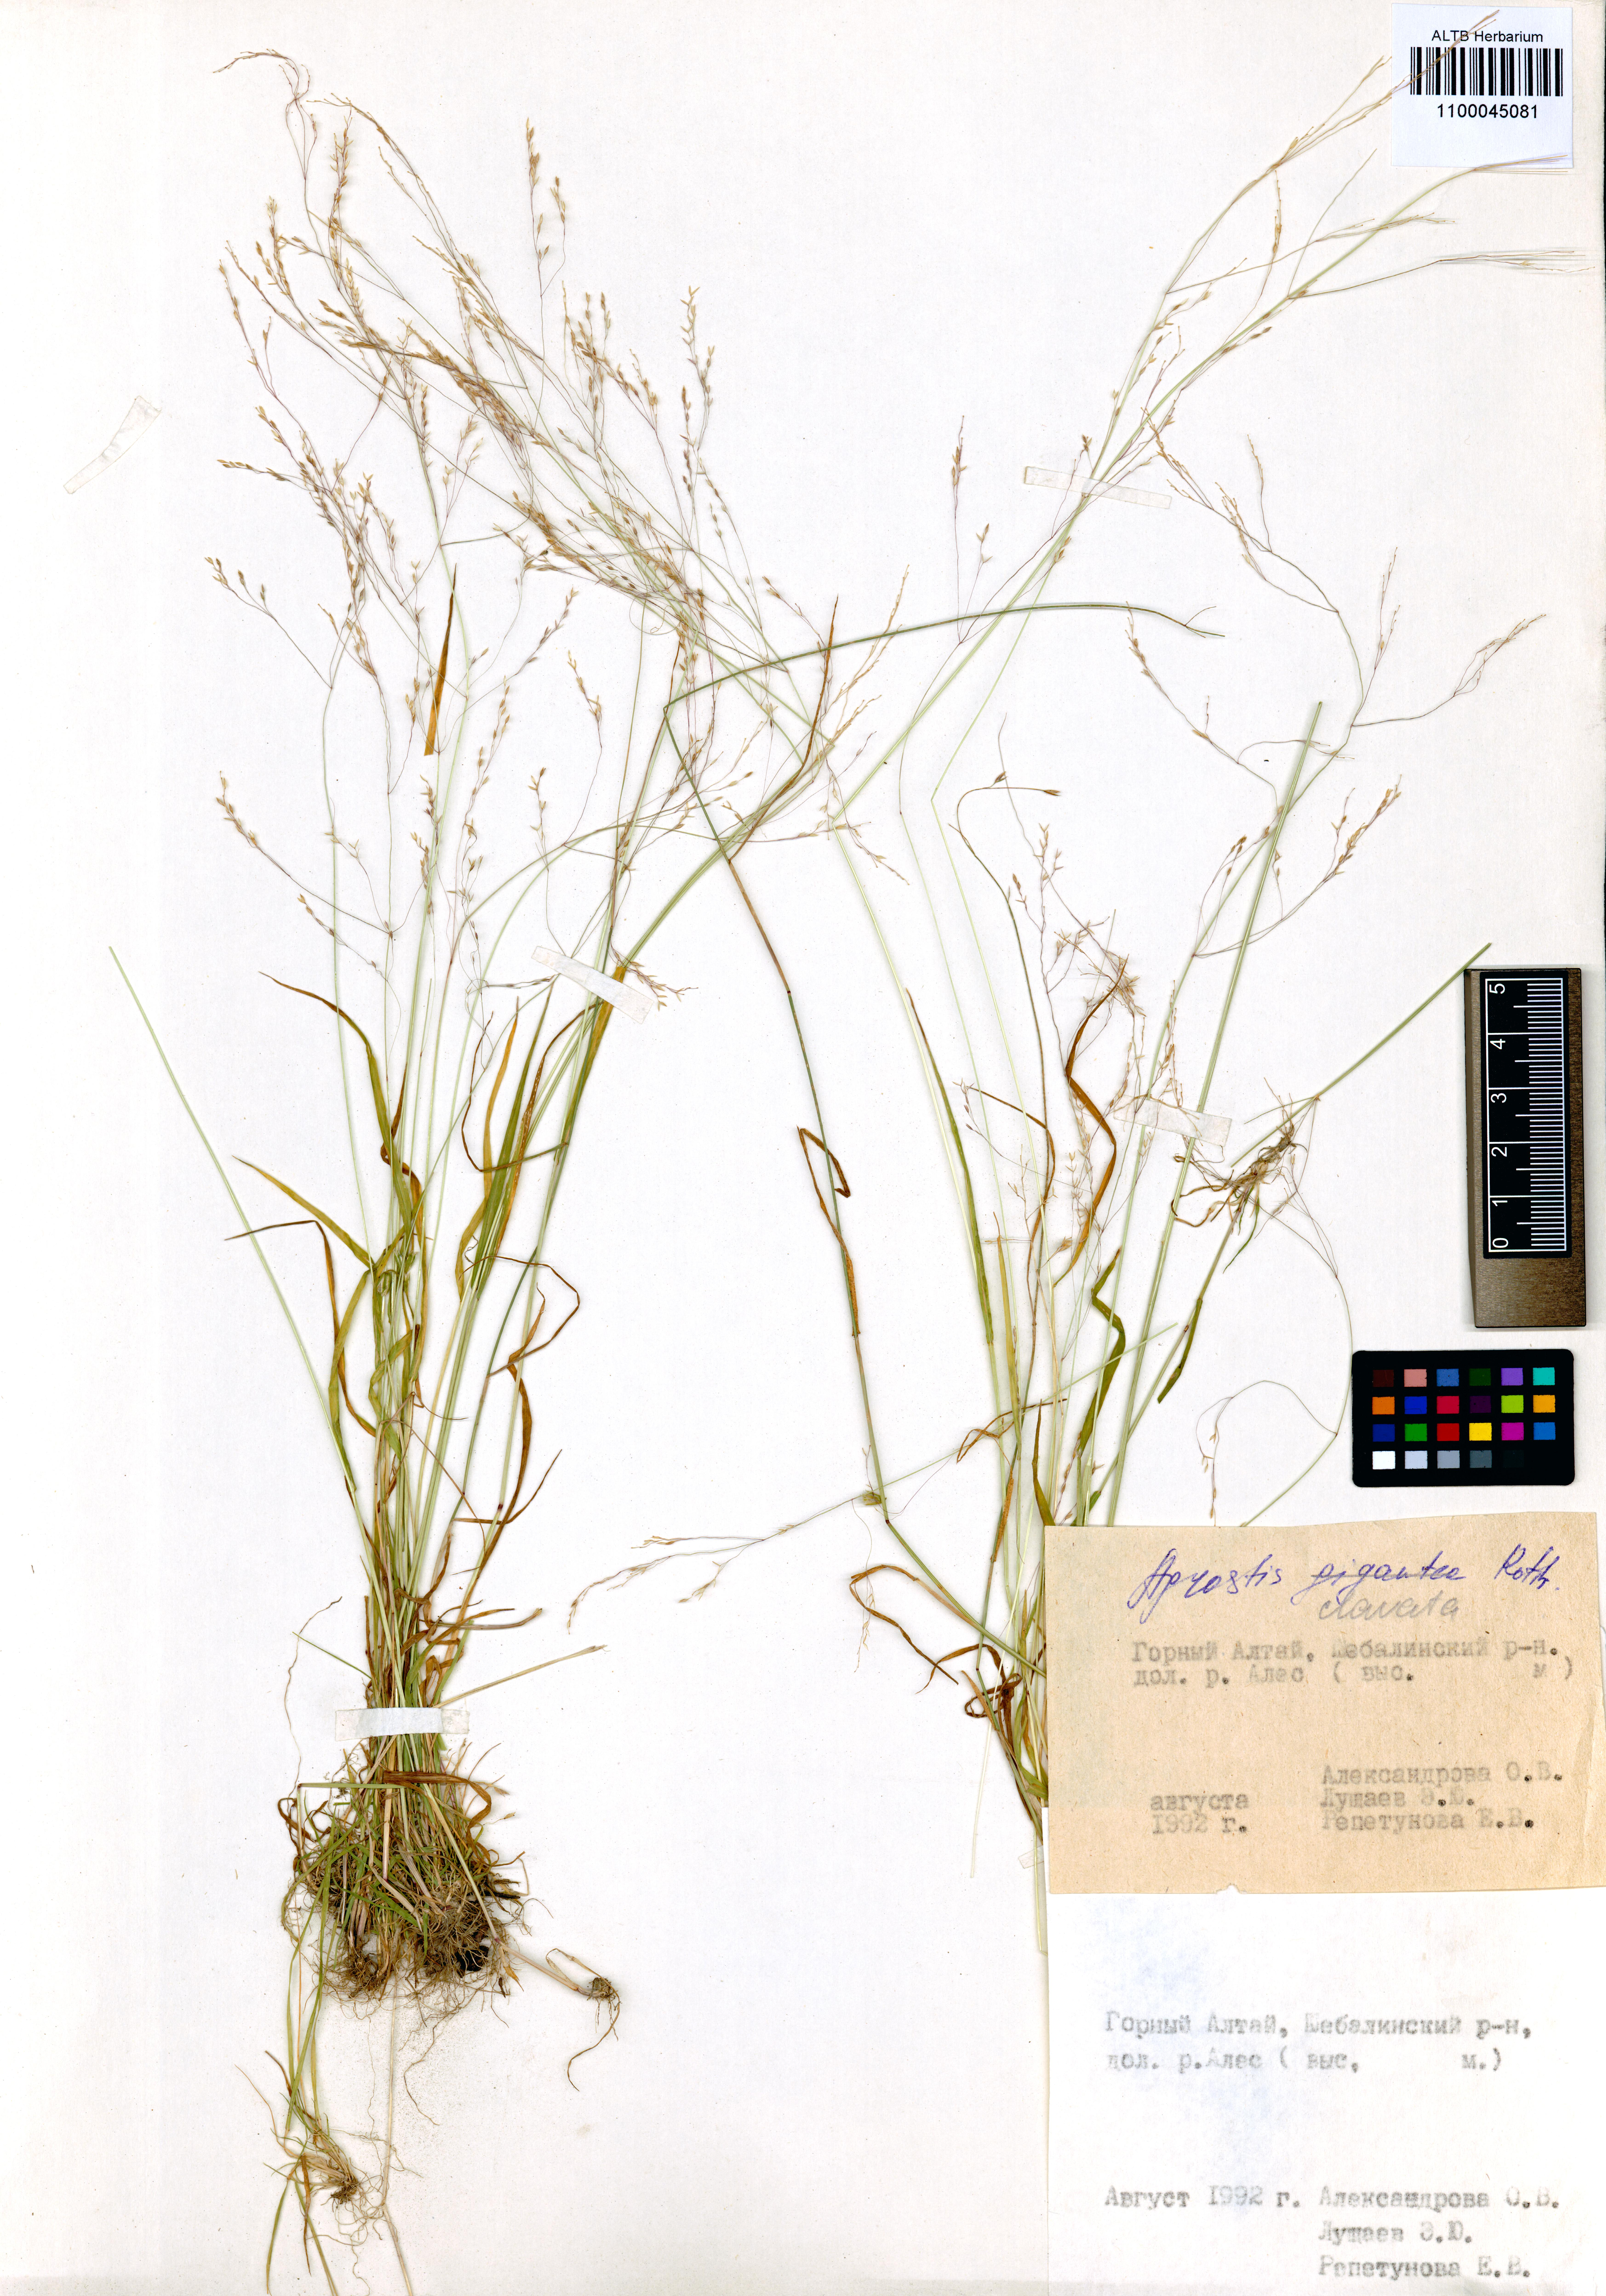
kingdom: Plantae
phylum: Tracheophyta
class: Liliopsida
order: Poales
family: Poaceae
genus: Agrostis
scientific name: Agrostis clavata
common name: Clavate bent
